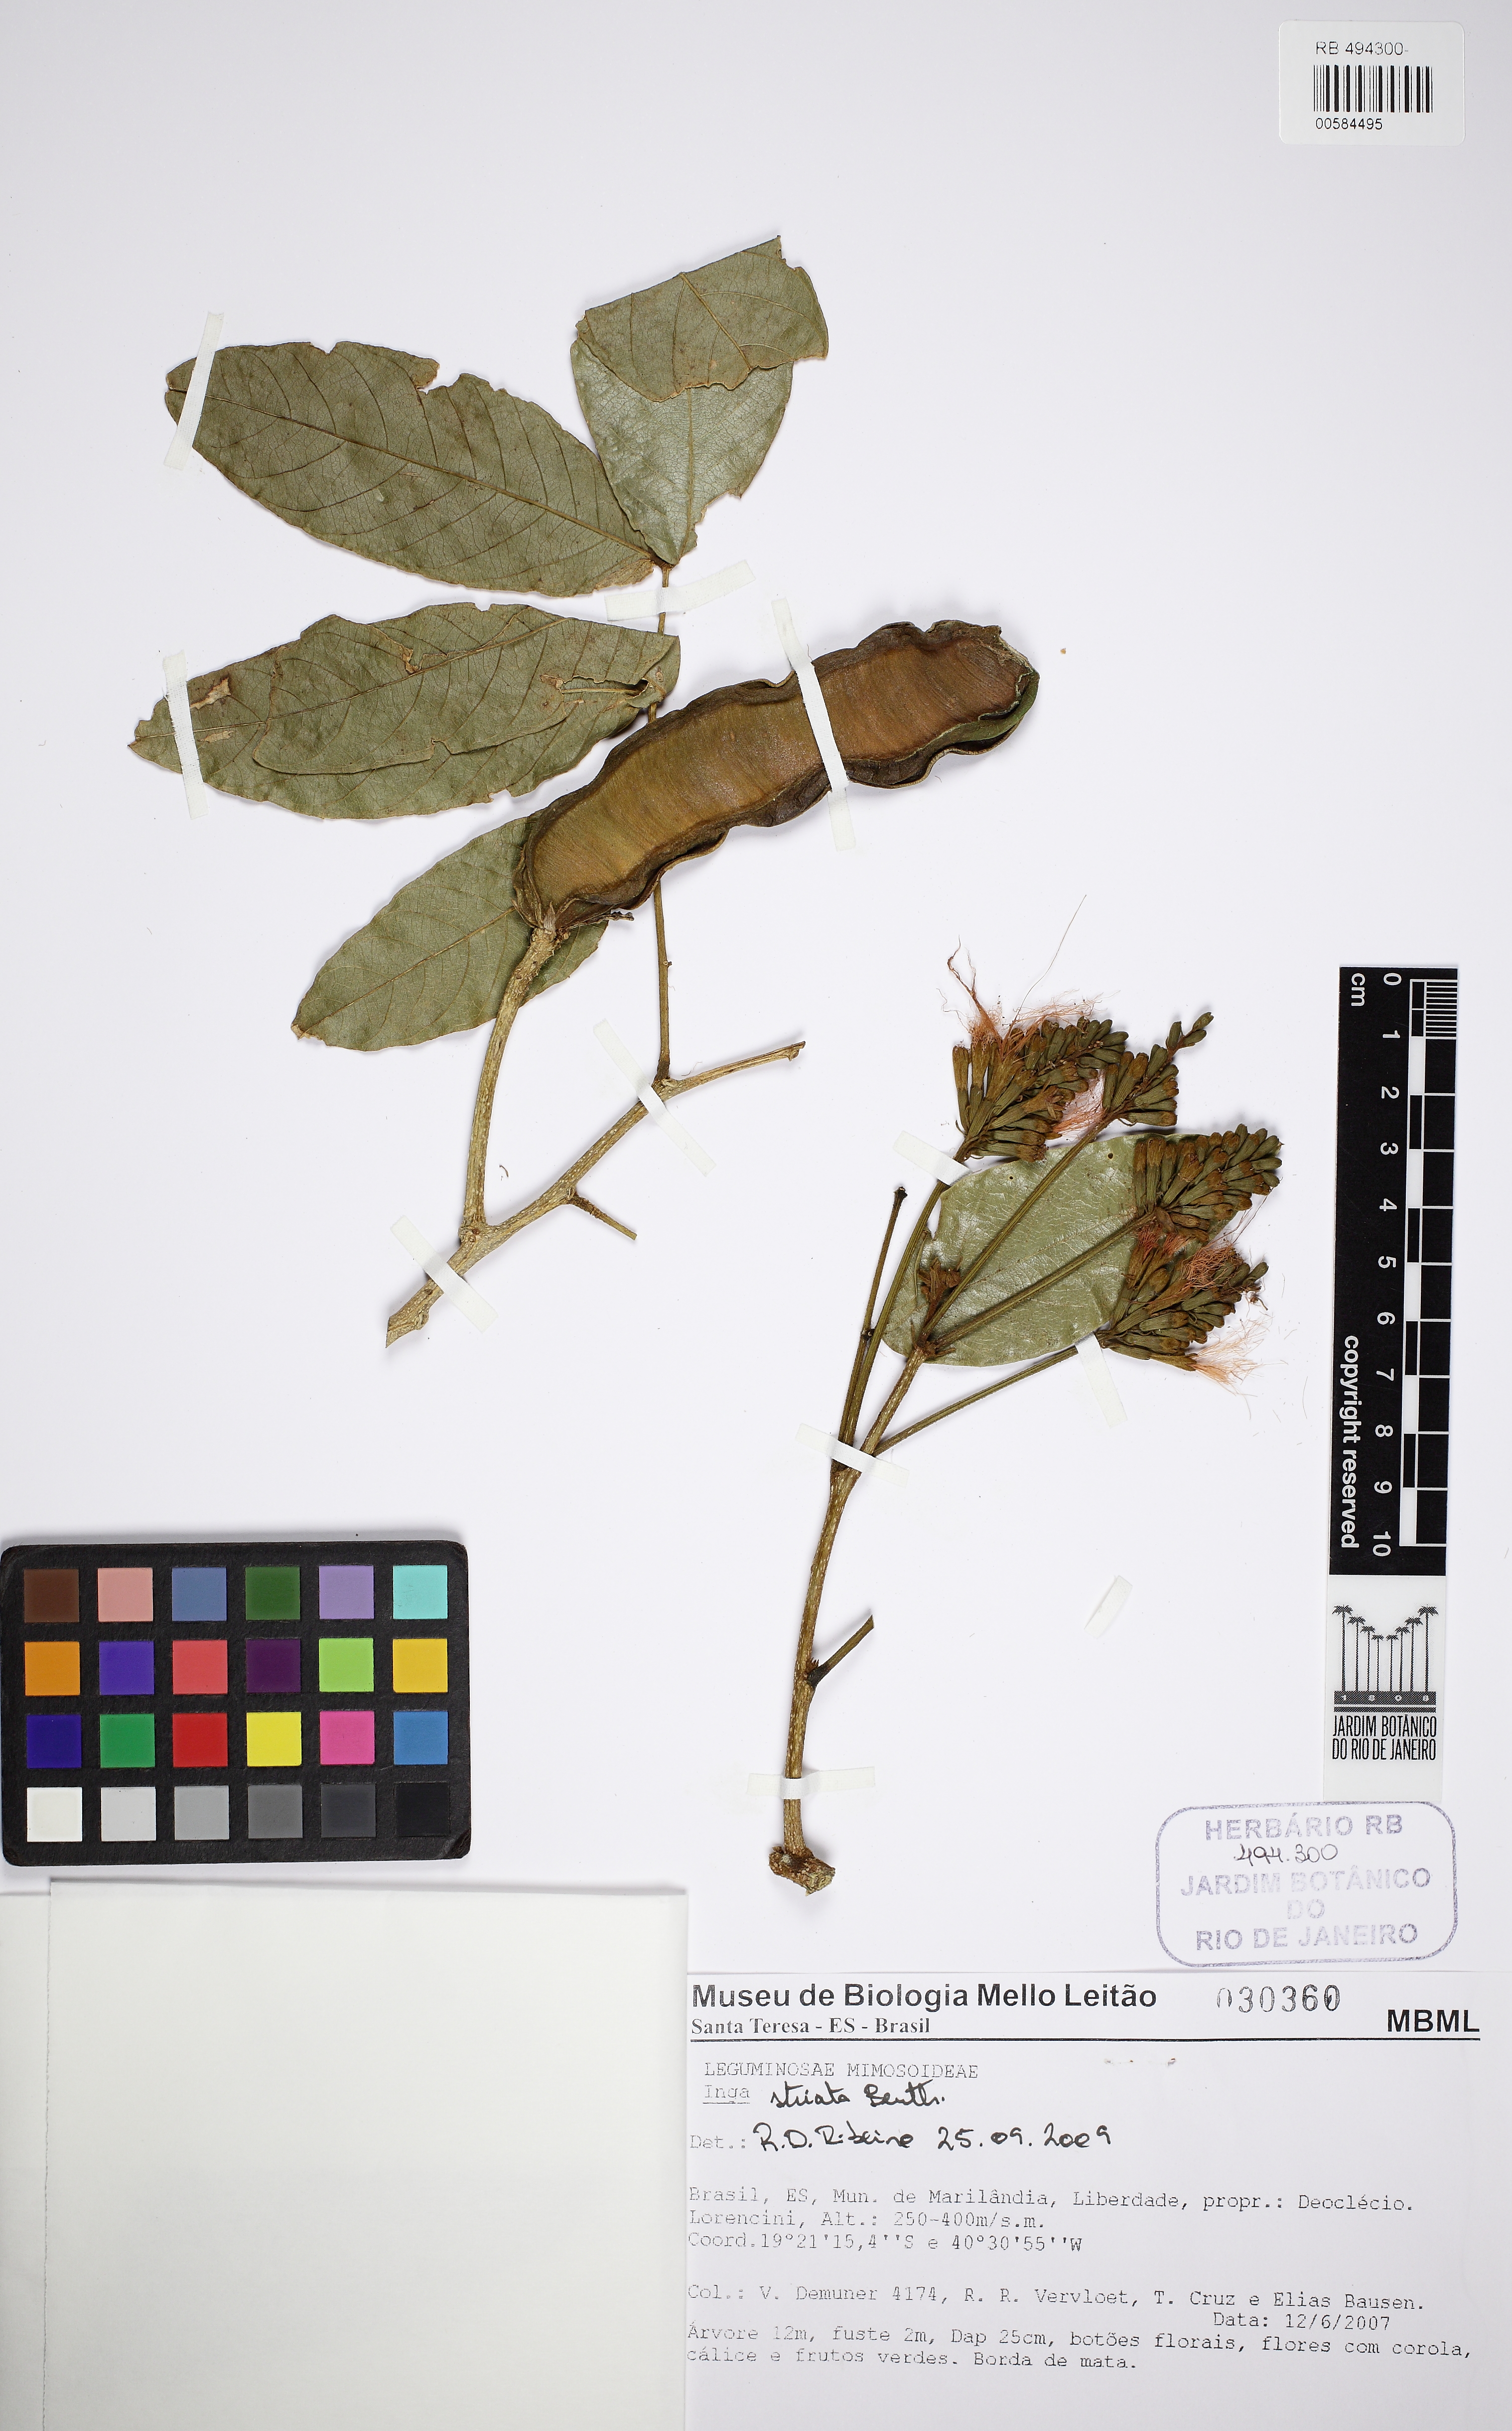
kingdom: Plantae
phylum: Tracheophyta
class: Magnoliopsida
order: Fabales
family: Fabaceae
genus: Inga
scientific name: Inga striata
